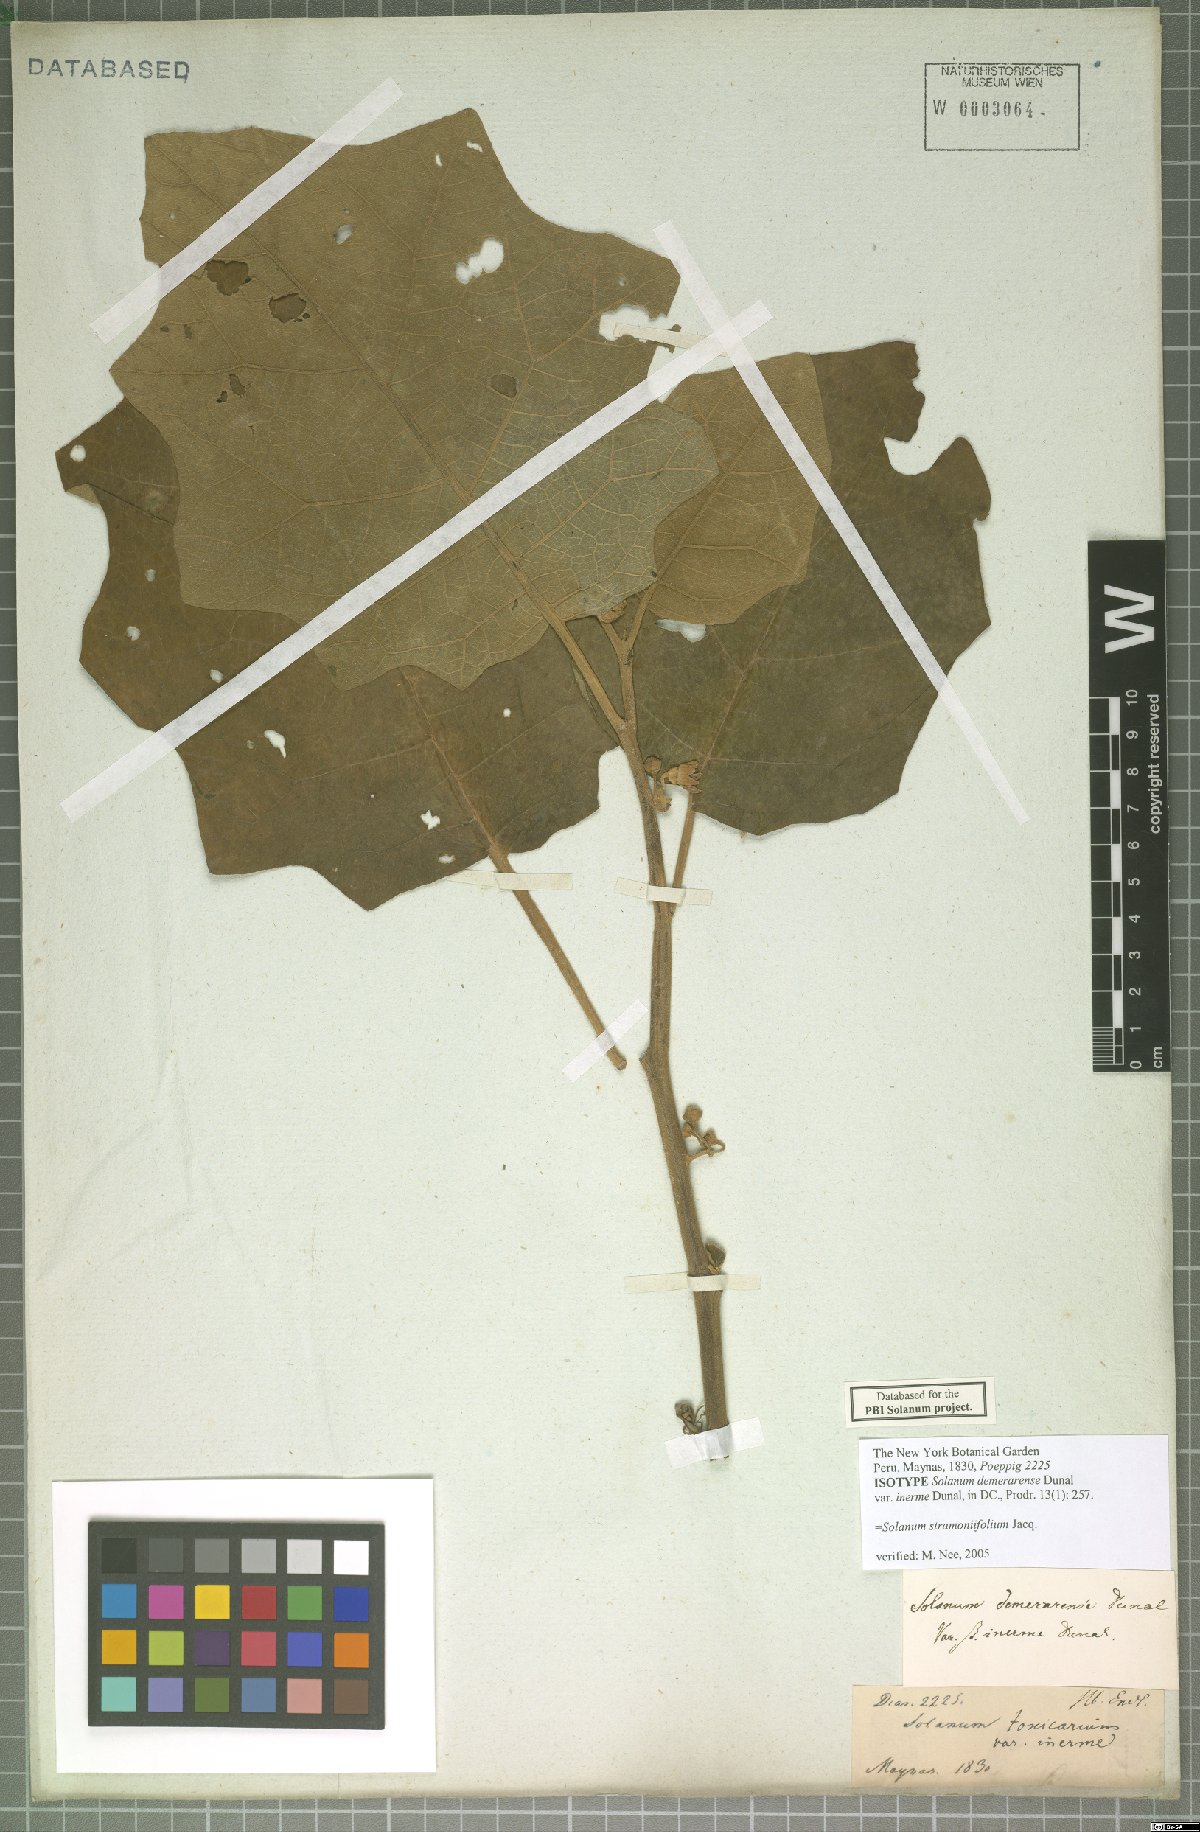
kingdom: Plantae
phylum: Tracheophyta
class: Magnoliopsida
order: Solanales
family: Solanaceae
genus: Solanum
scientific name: Solanum stramonifolium
